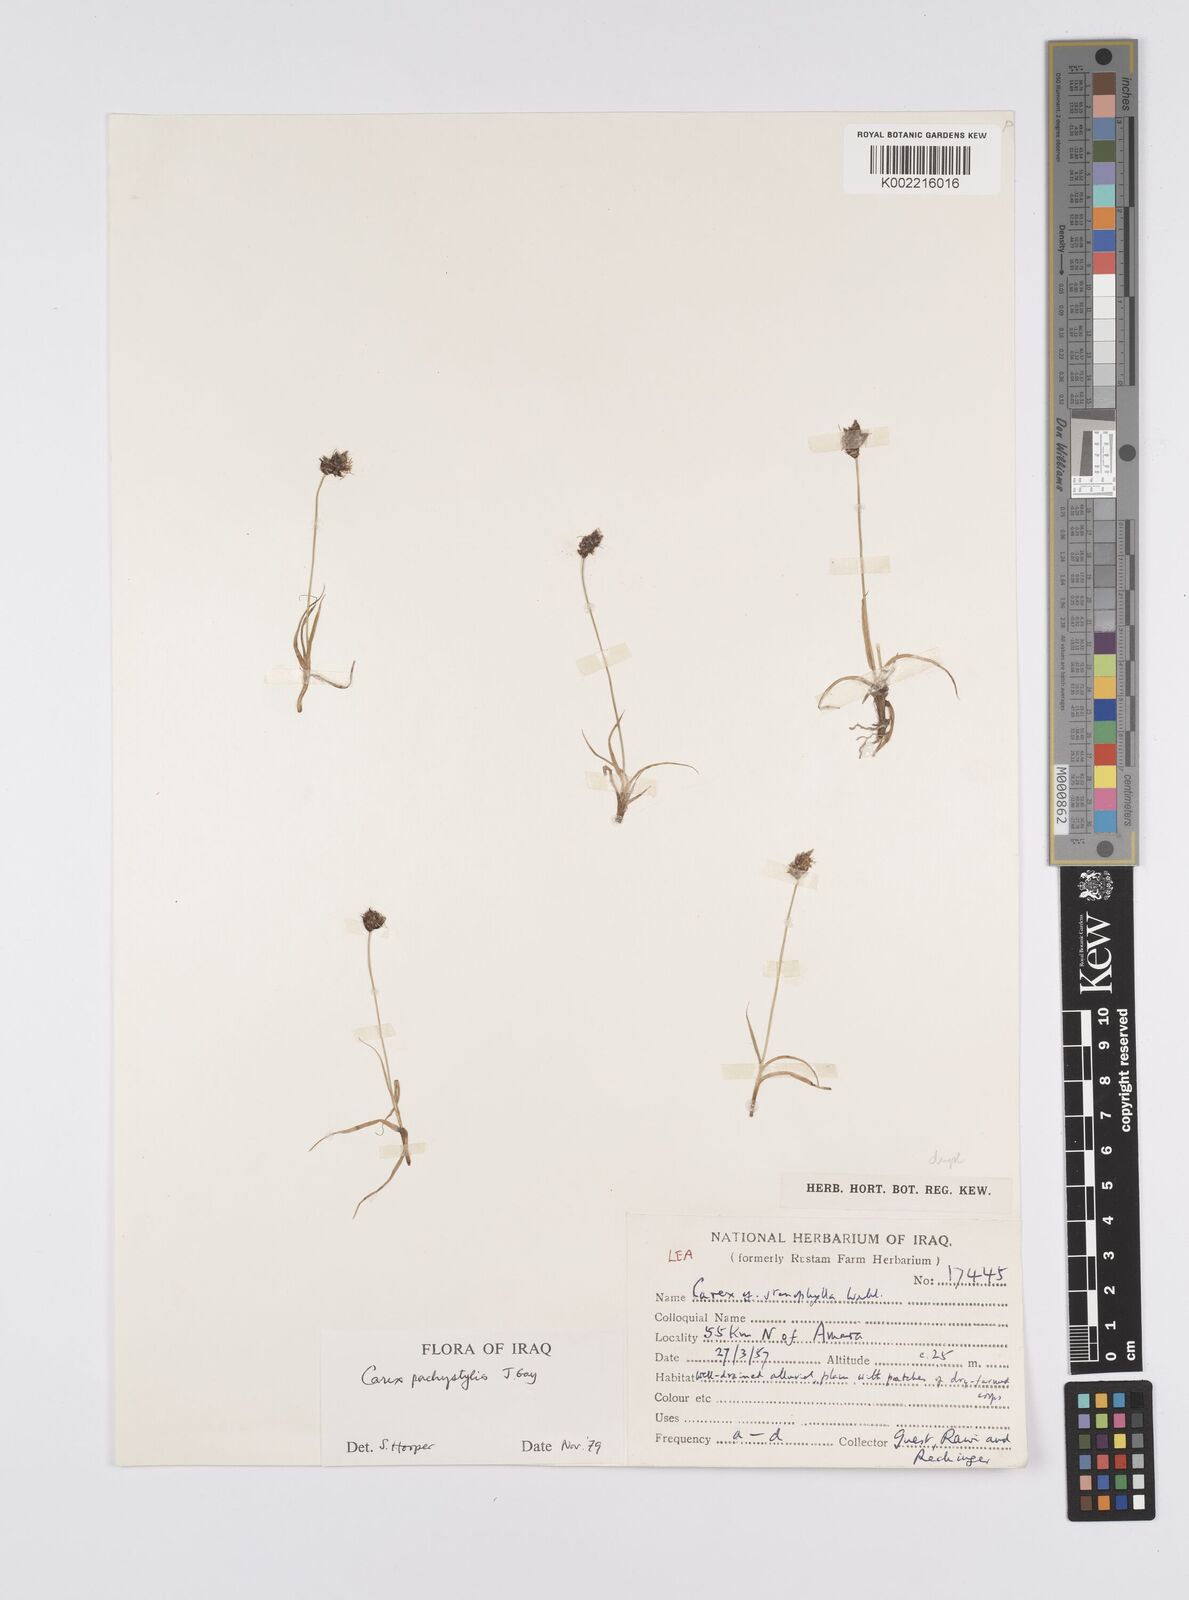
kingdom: Plantae
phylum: Tracheophyta
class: Liliopsida
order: Poales
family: Cyperaceae
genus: Carex
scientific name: Carex pachystylis
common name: Thick-stem sedge
